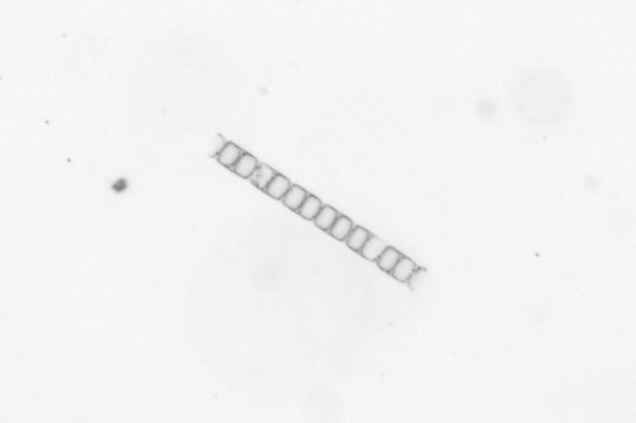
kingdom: Chromista
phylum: Ochrophyta
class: Bacillariophyceae
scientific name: Bacillariophyceae
